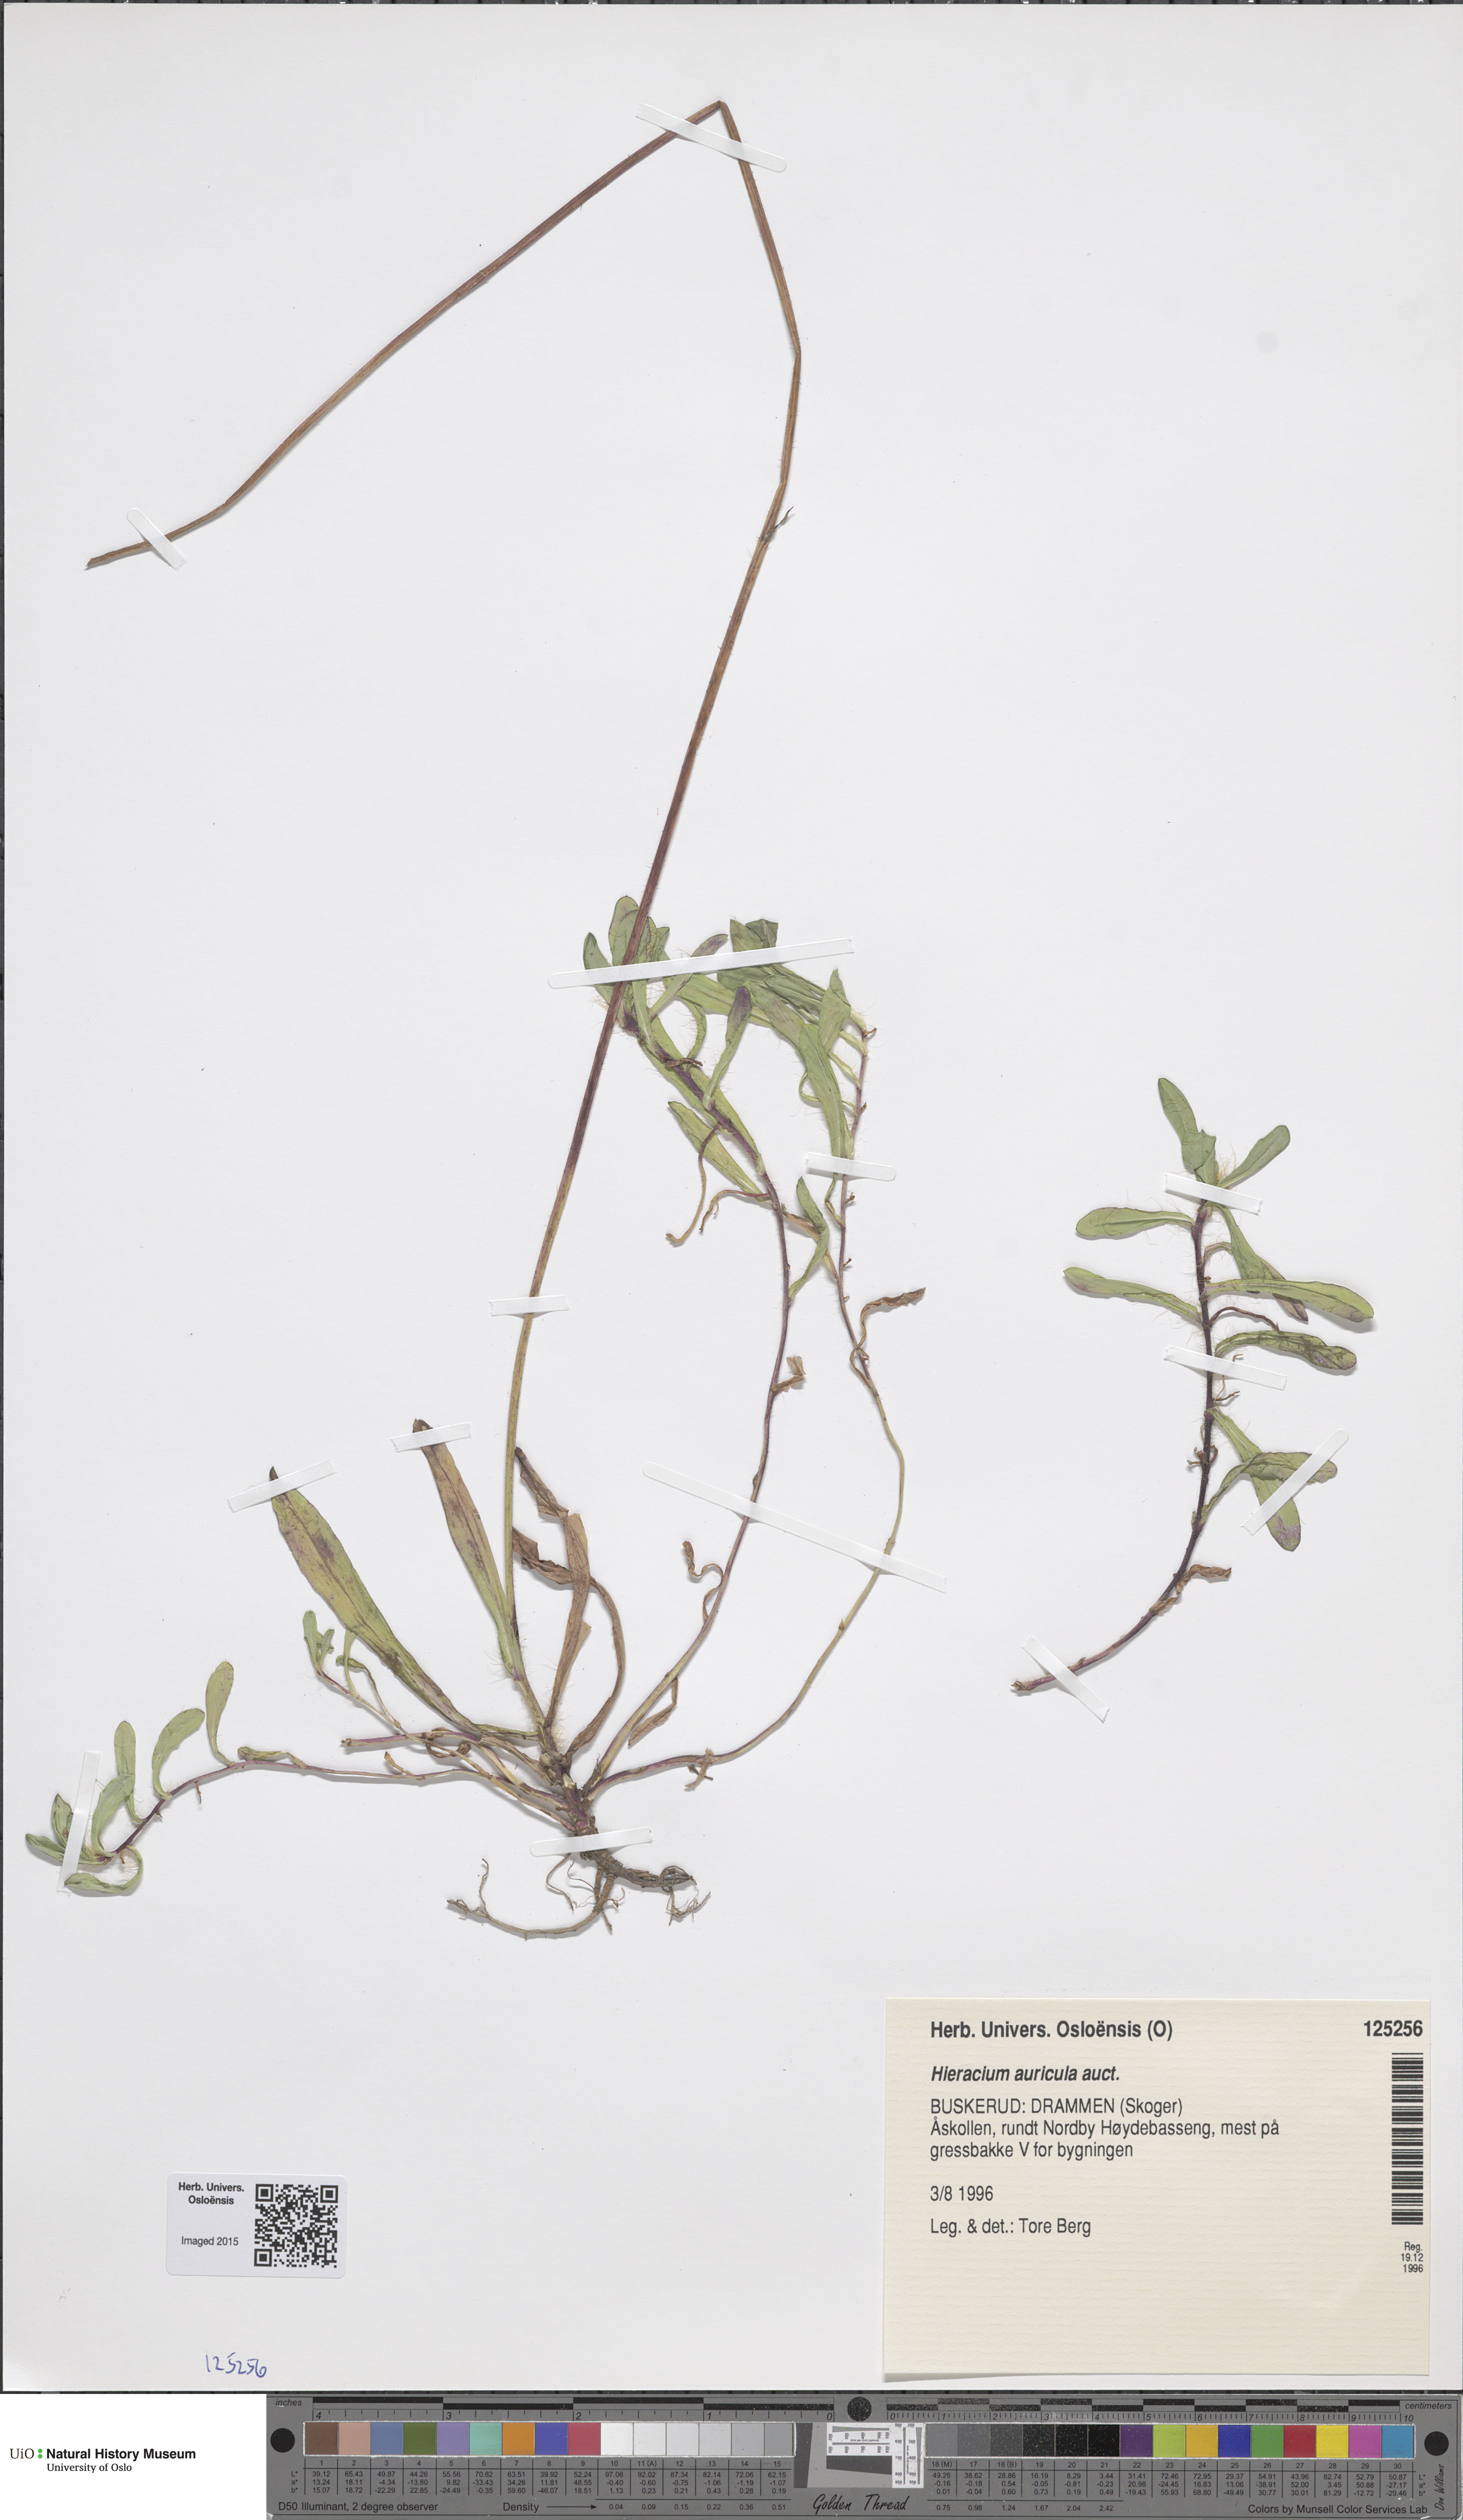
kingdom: Plantae
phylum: Tracheophyta
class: Magnoliopsida
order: Asterales
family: Asteraceae
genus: Pilosella
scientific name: Pilosella lactucella
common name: Glaucous fox-and-cubs
